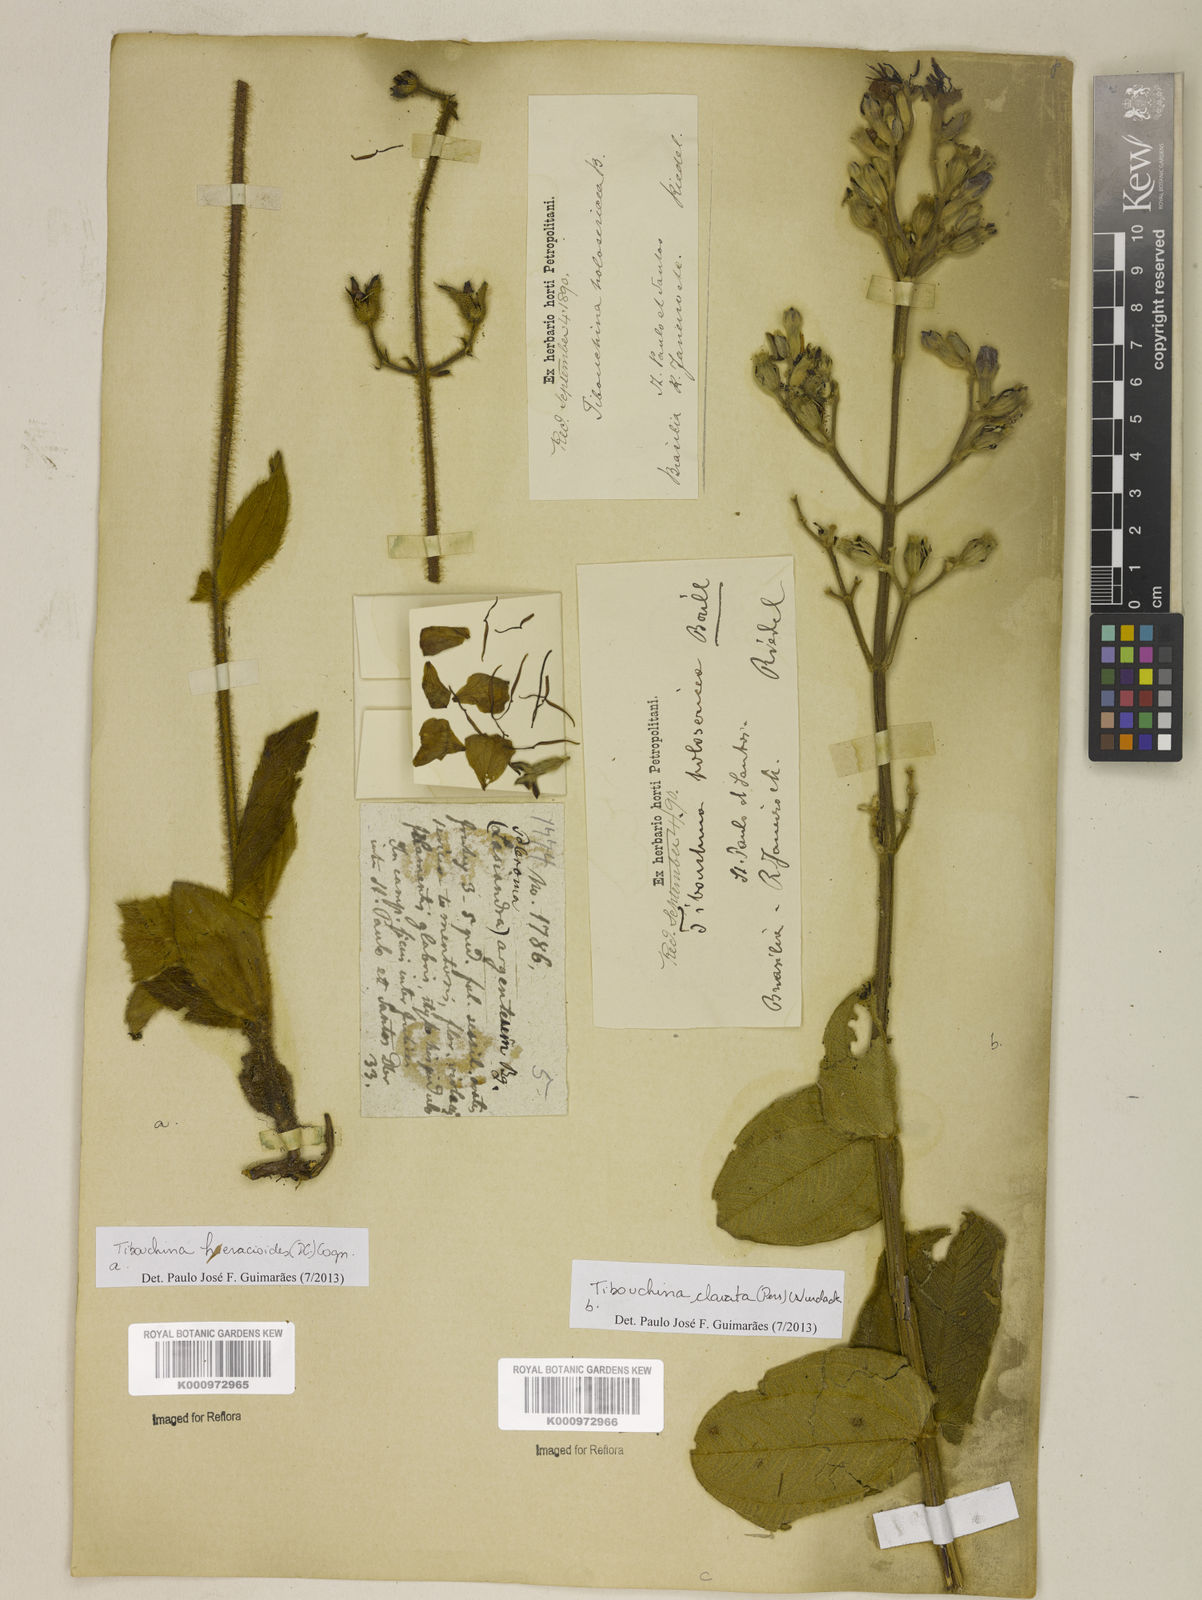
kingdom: Plantae
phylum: Tracheophyta
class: Magnoliopsida
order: Myrtales
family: Melastomataceae
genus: Pleroma
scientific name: Pleroma clavatum
